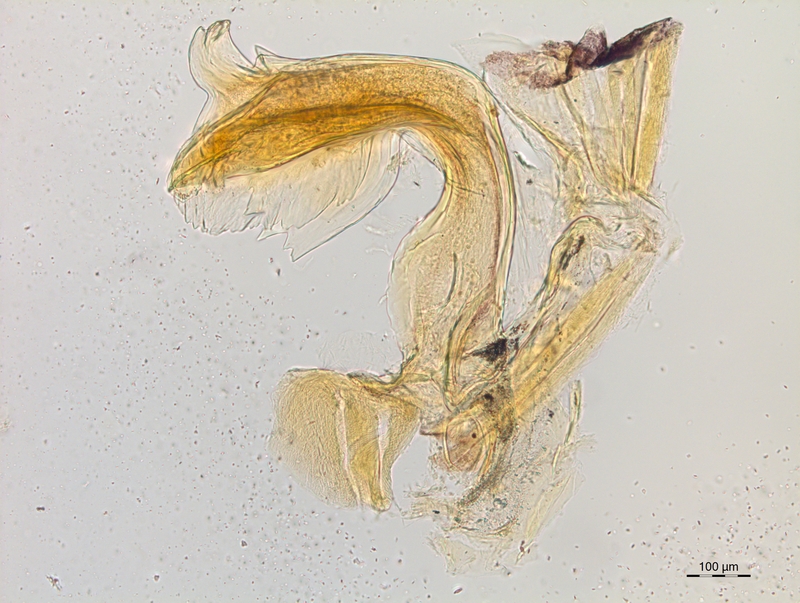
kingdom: Animalia
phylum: Arthropoda
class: Diplopoda
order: Chordeumatida
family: Craspedosomatidae
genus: Craspedosoma
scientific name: Craspedosoma taurinorum
